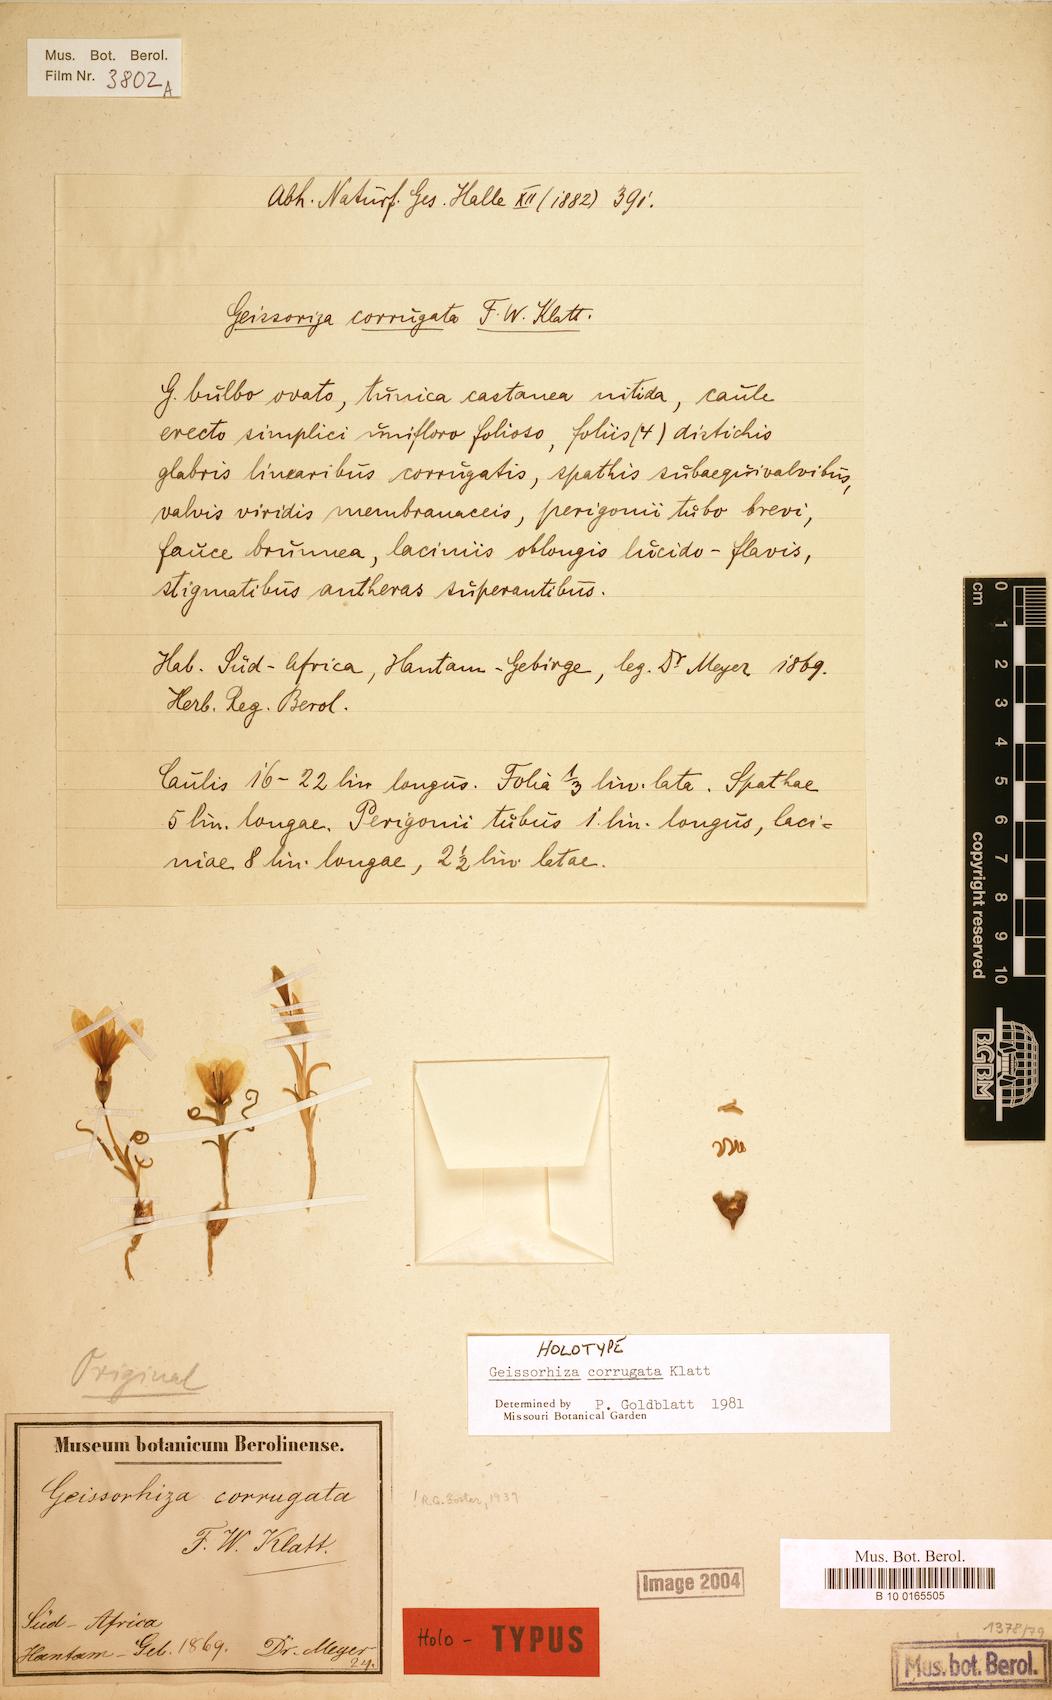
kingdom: Plantae
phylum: Tracheophyta
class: Liliopsida
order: Asparagales
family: Iridaceae
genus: Geissorhiza
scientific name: Geissorhiza corrugata
